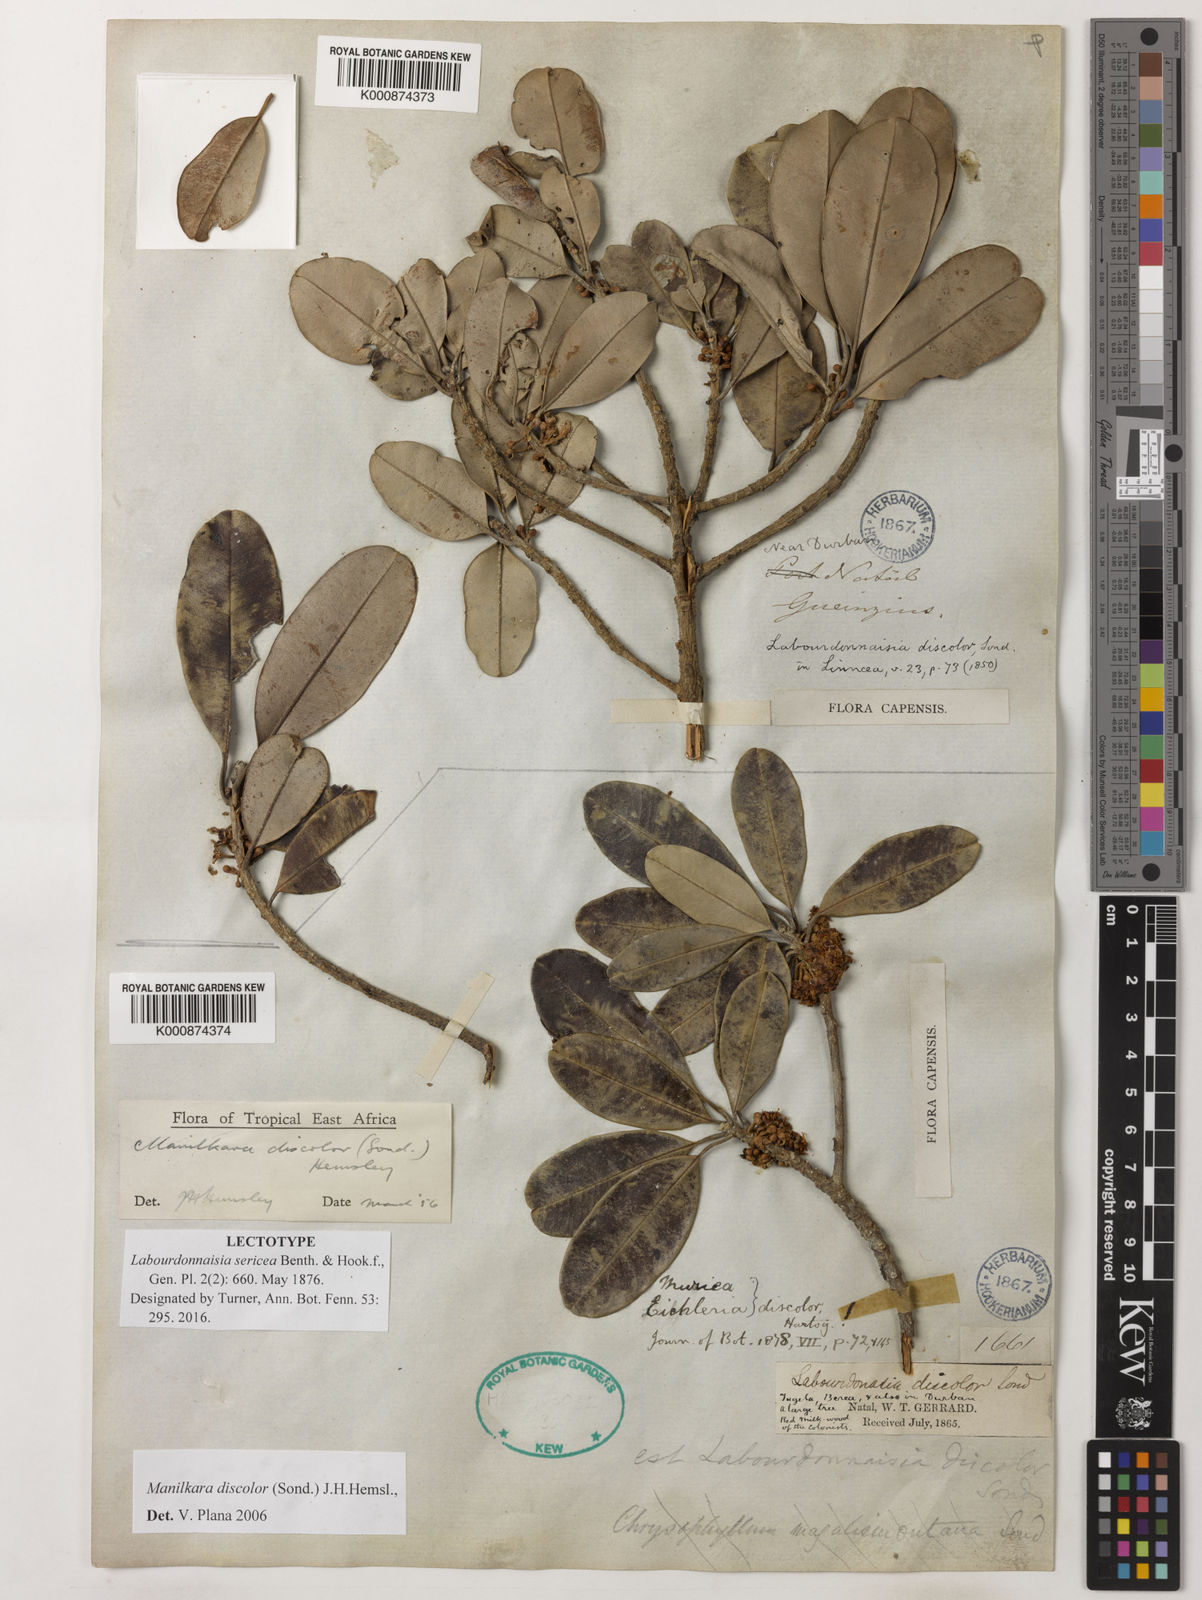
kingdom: Plantae
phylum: Tracheophyta
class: Magnoliopsida
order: Ericales
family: Sapotaceae
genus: Manilkara
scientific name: Manilkara discolor
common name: Forest milkberry
